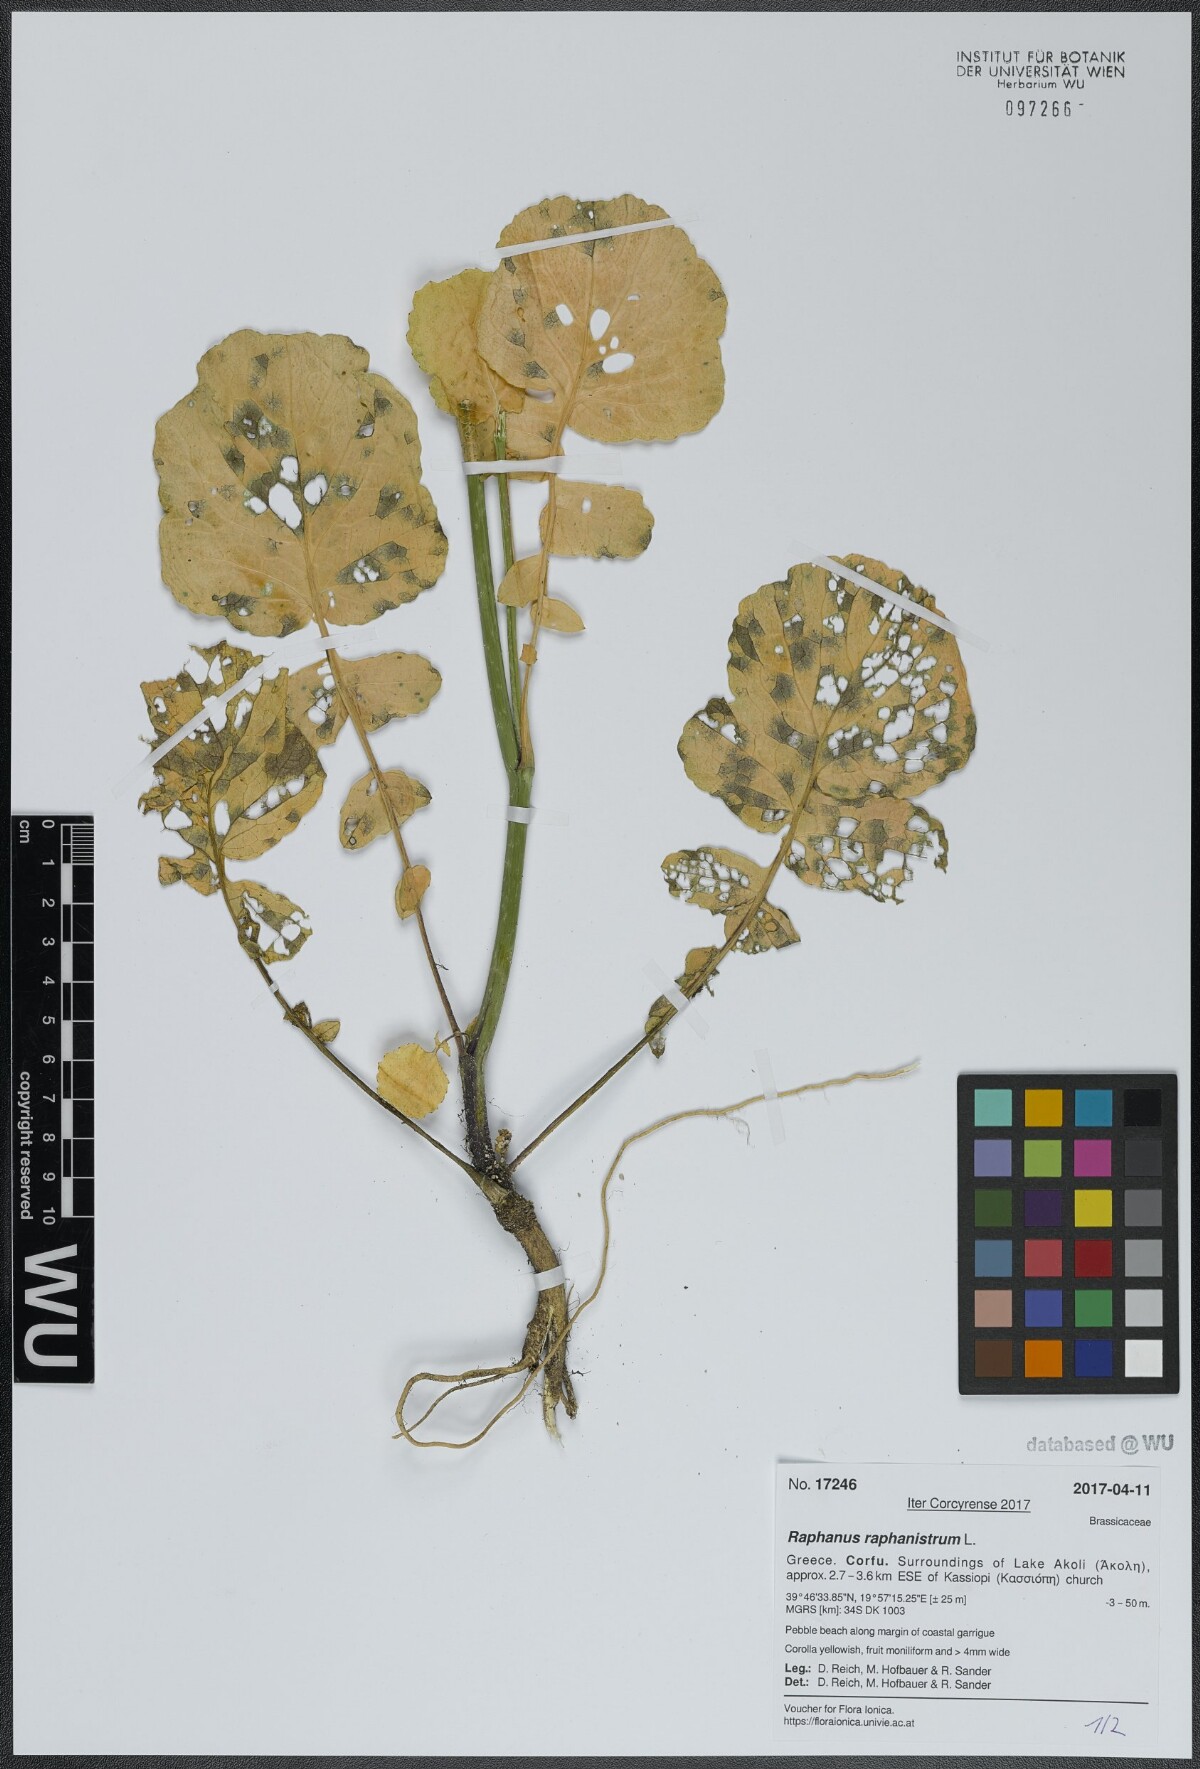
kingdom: Plantae
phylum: Tracheophyta
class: Magnoliopsida
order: Brassicales
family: Brassicaceae
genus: Raphanus
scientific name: Raphanus raphanistrum
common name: Wild radish
